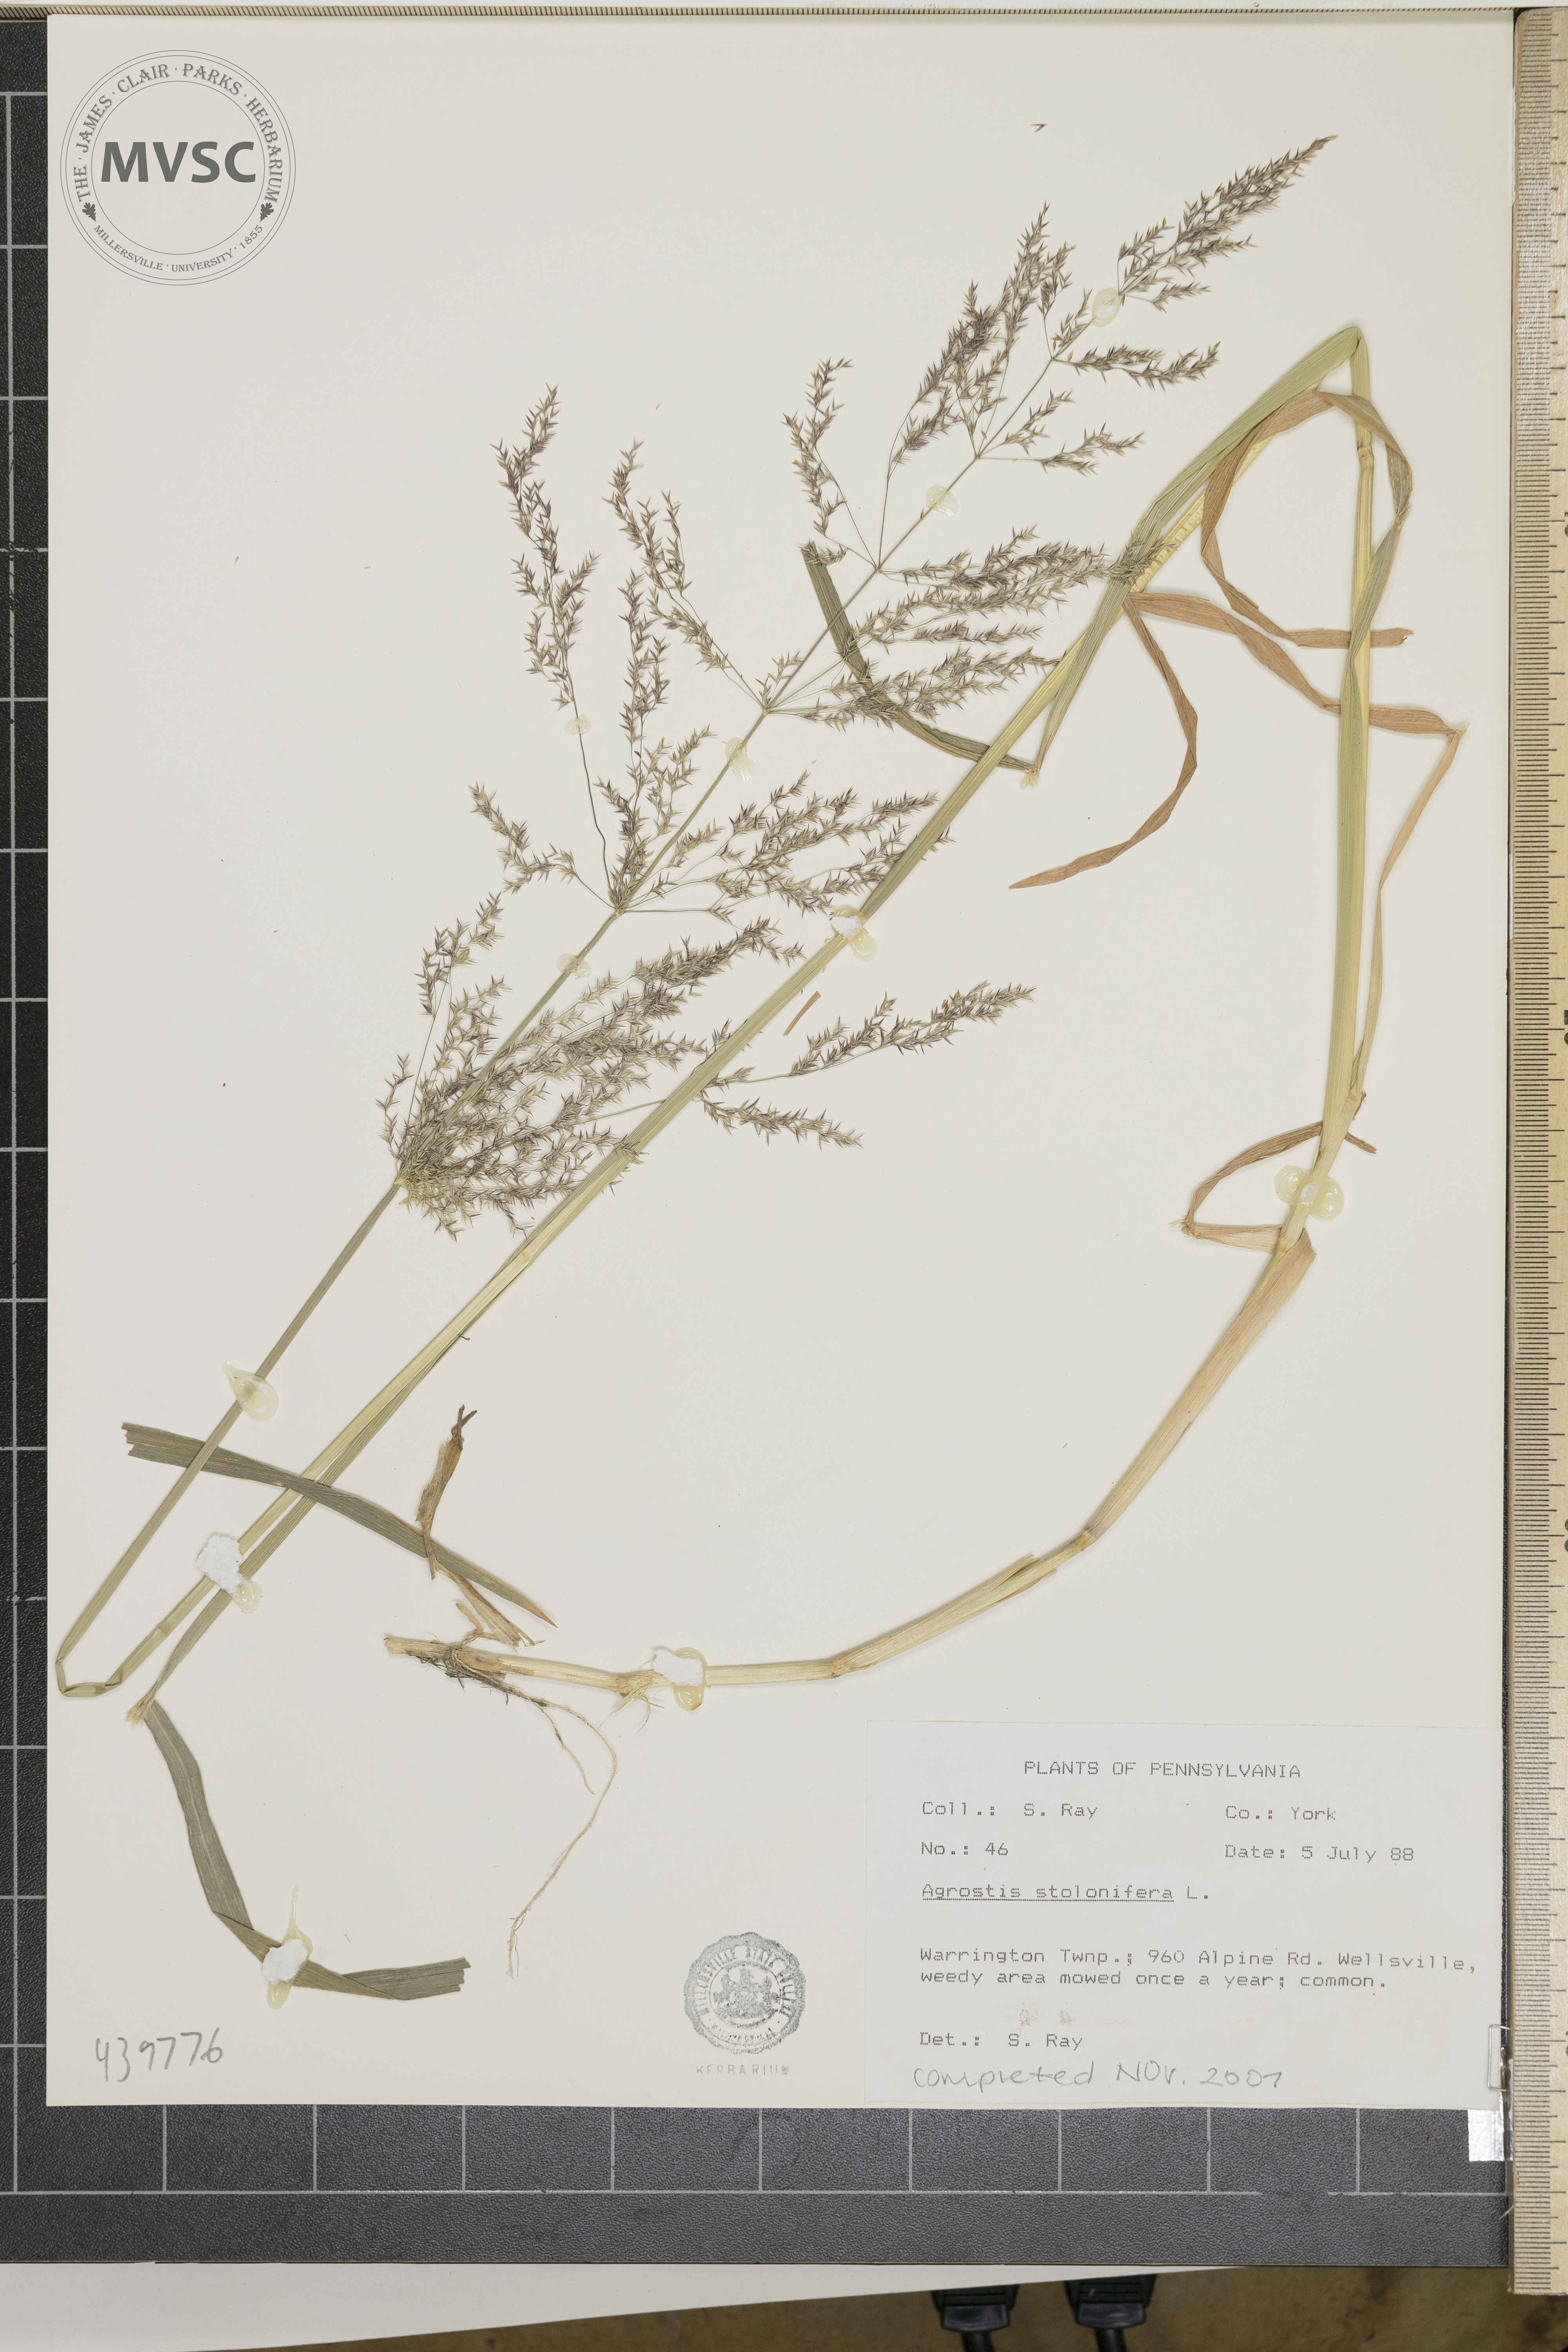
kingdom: Plantae
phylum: Tracheophyta
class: Liliopsida
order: Poales
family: Poaceae
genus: Agrostis
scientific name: Agrostis stolonifera
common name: Creeping bentgrass
